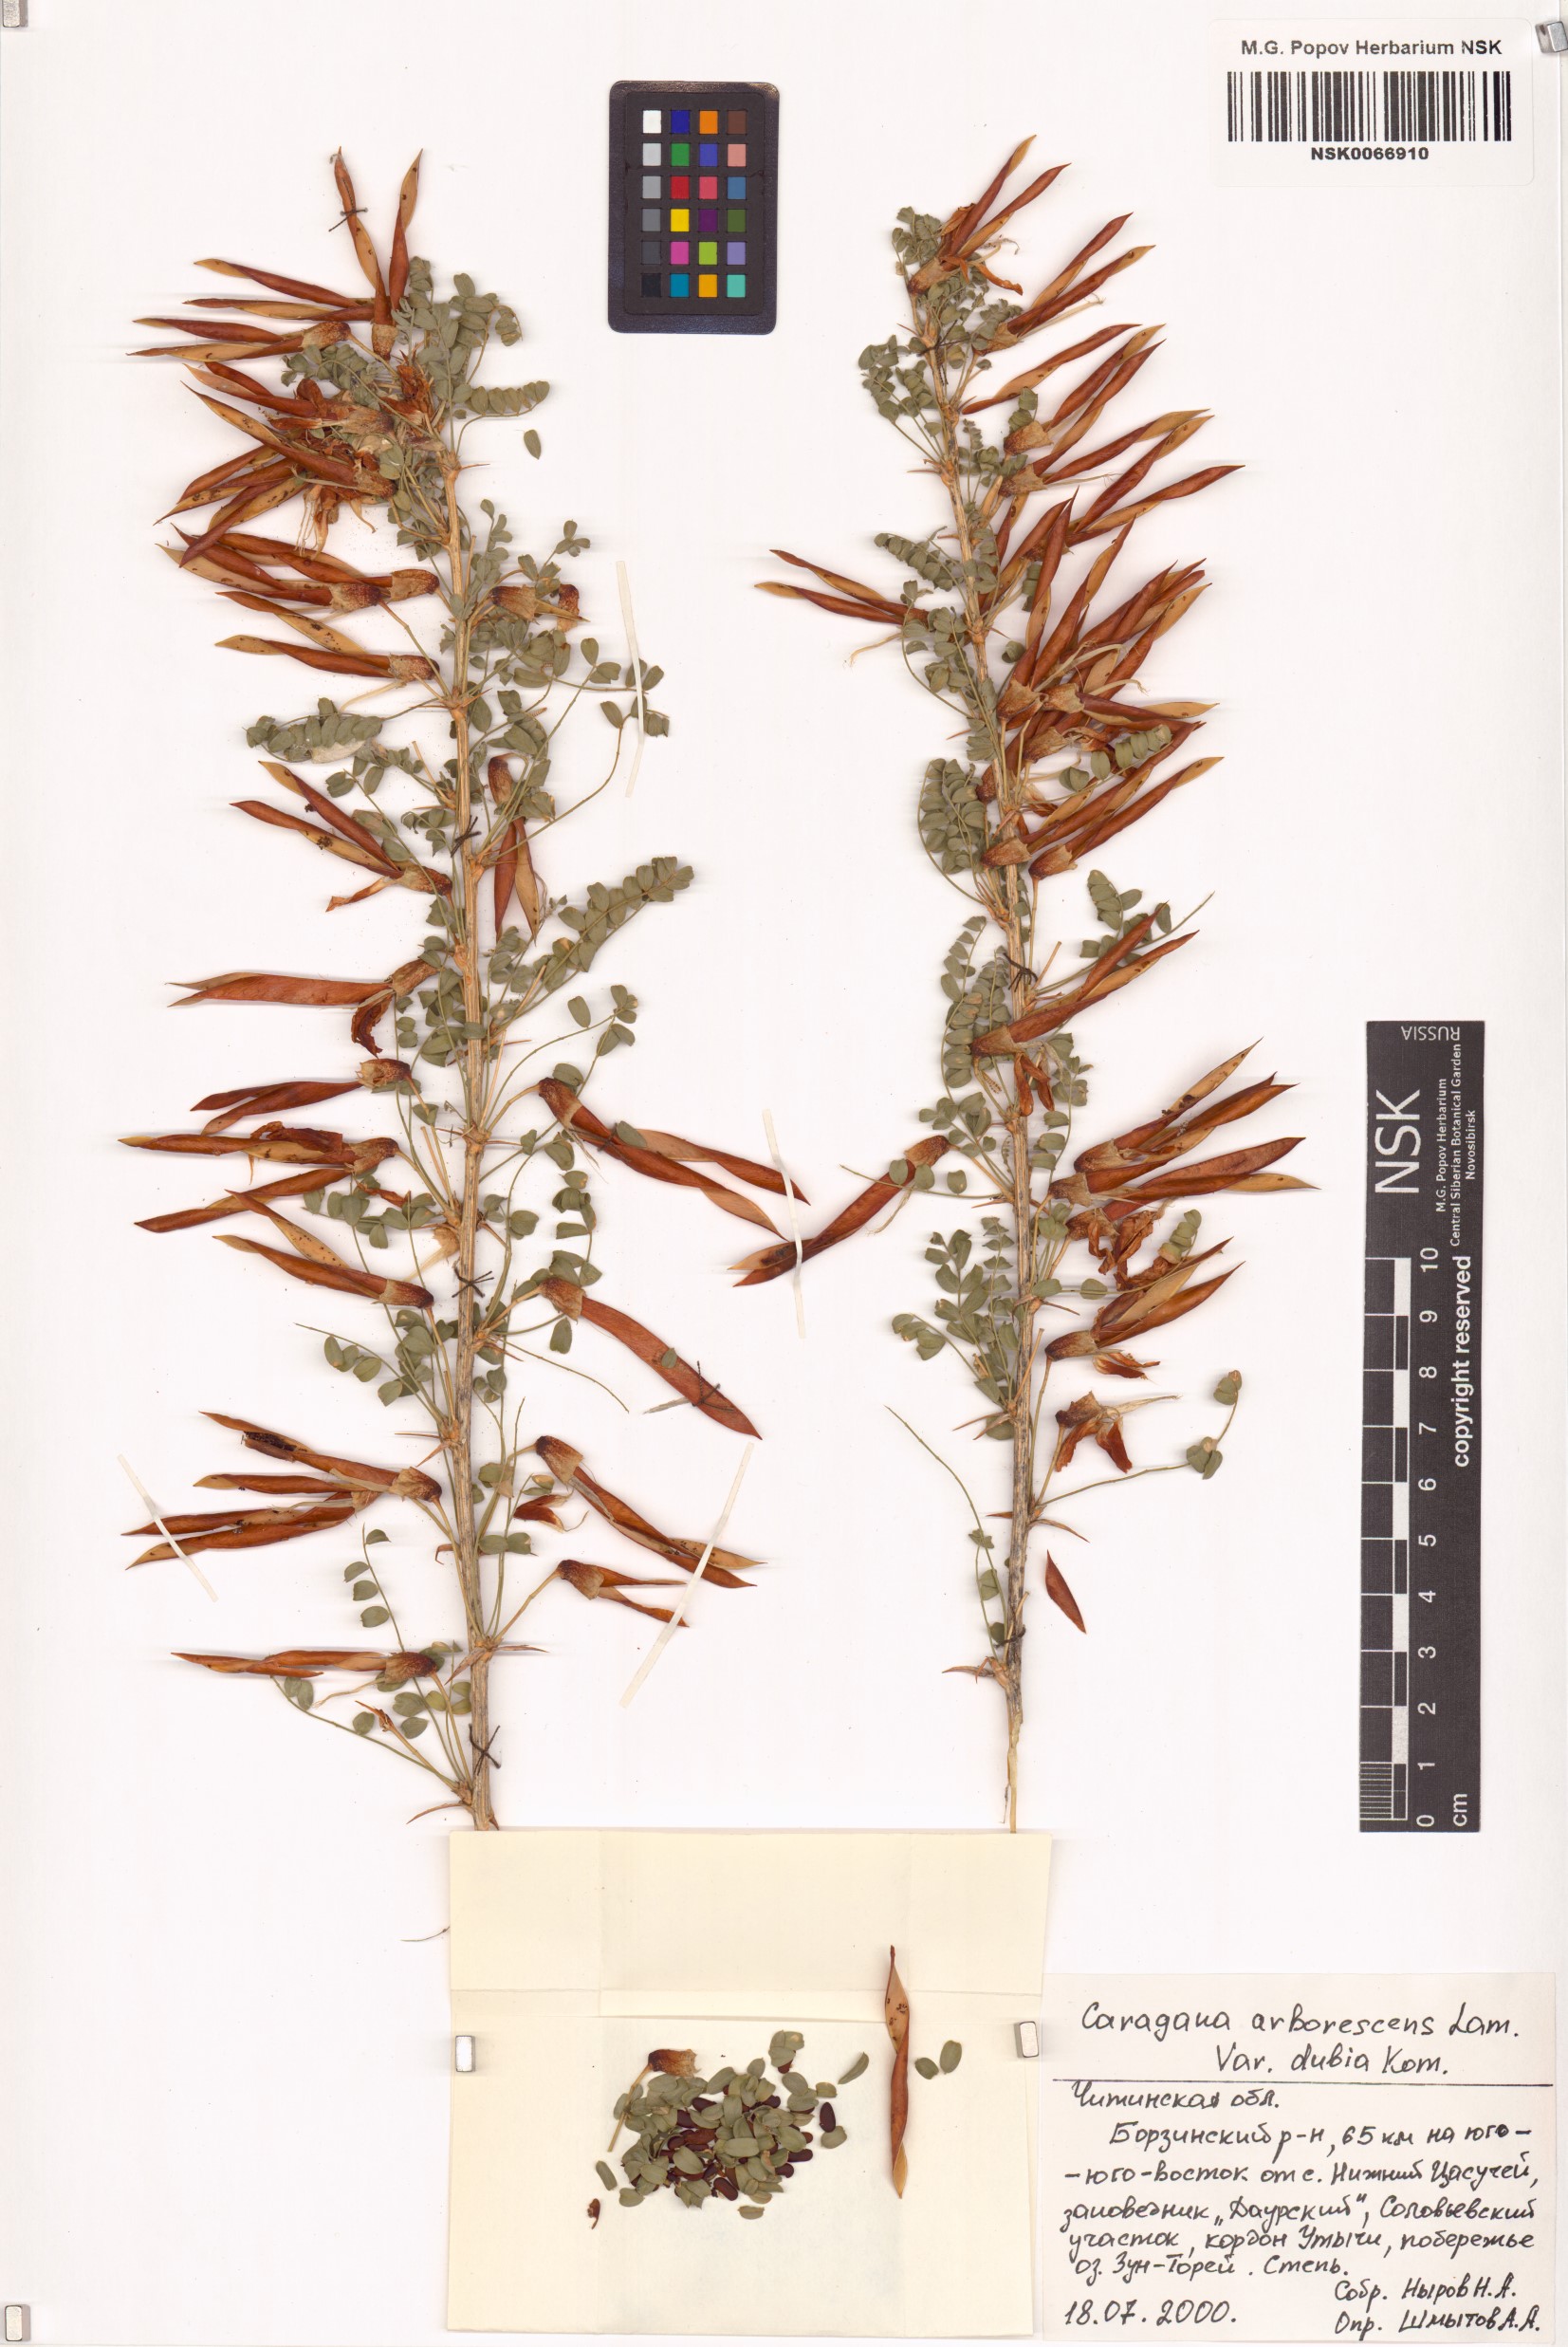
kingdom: Plantae
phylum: Tracheophyta
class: Magnoliopsida
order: Fabales
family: Fabaceae
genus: Caragana
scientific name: Caragana arborescens
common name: Siberian peashrub
